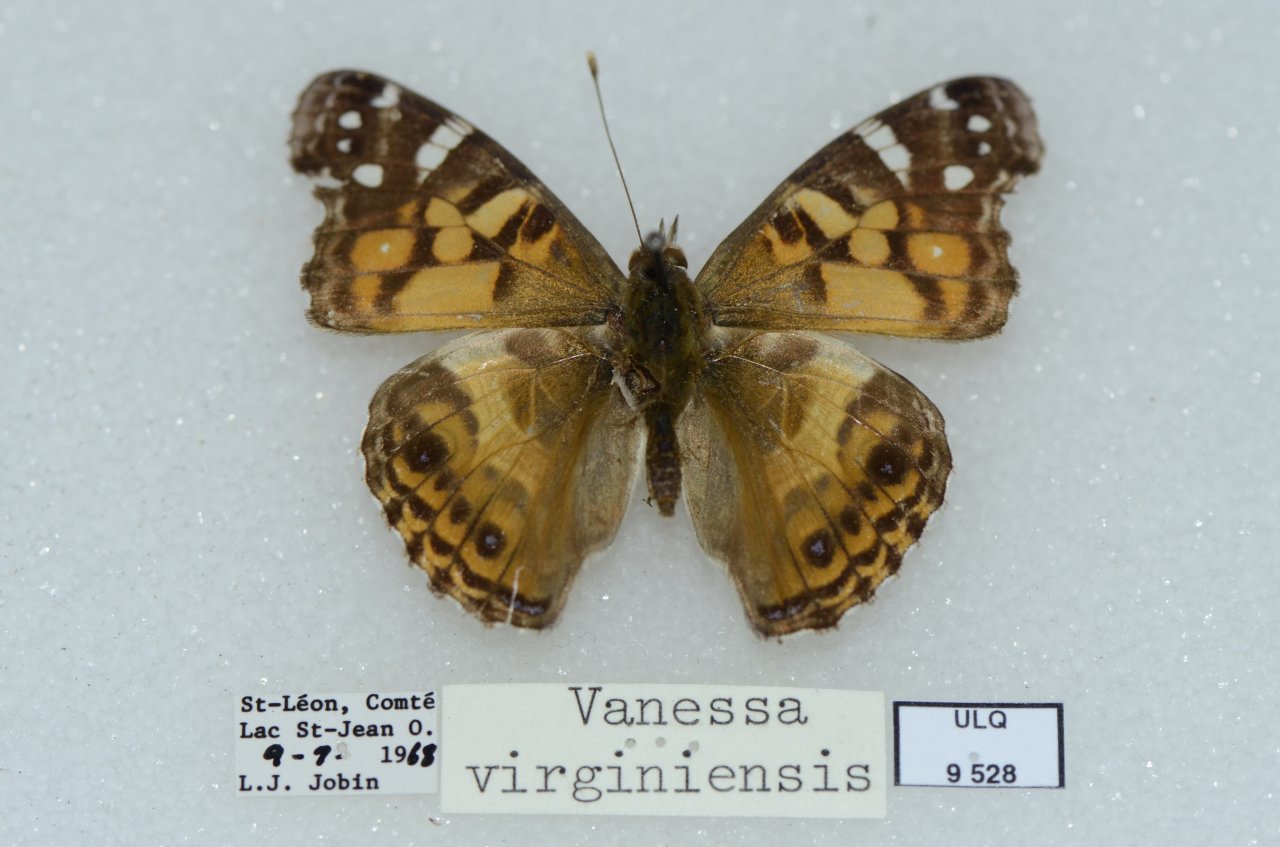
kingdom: Animalia
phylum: Arthropoda
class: Insecta
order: Lepidoptera
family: Nymphalidae
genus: Vanessa
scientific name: Vanessa virginiensis
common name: American Lady
